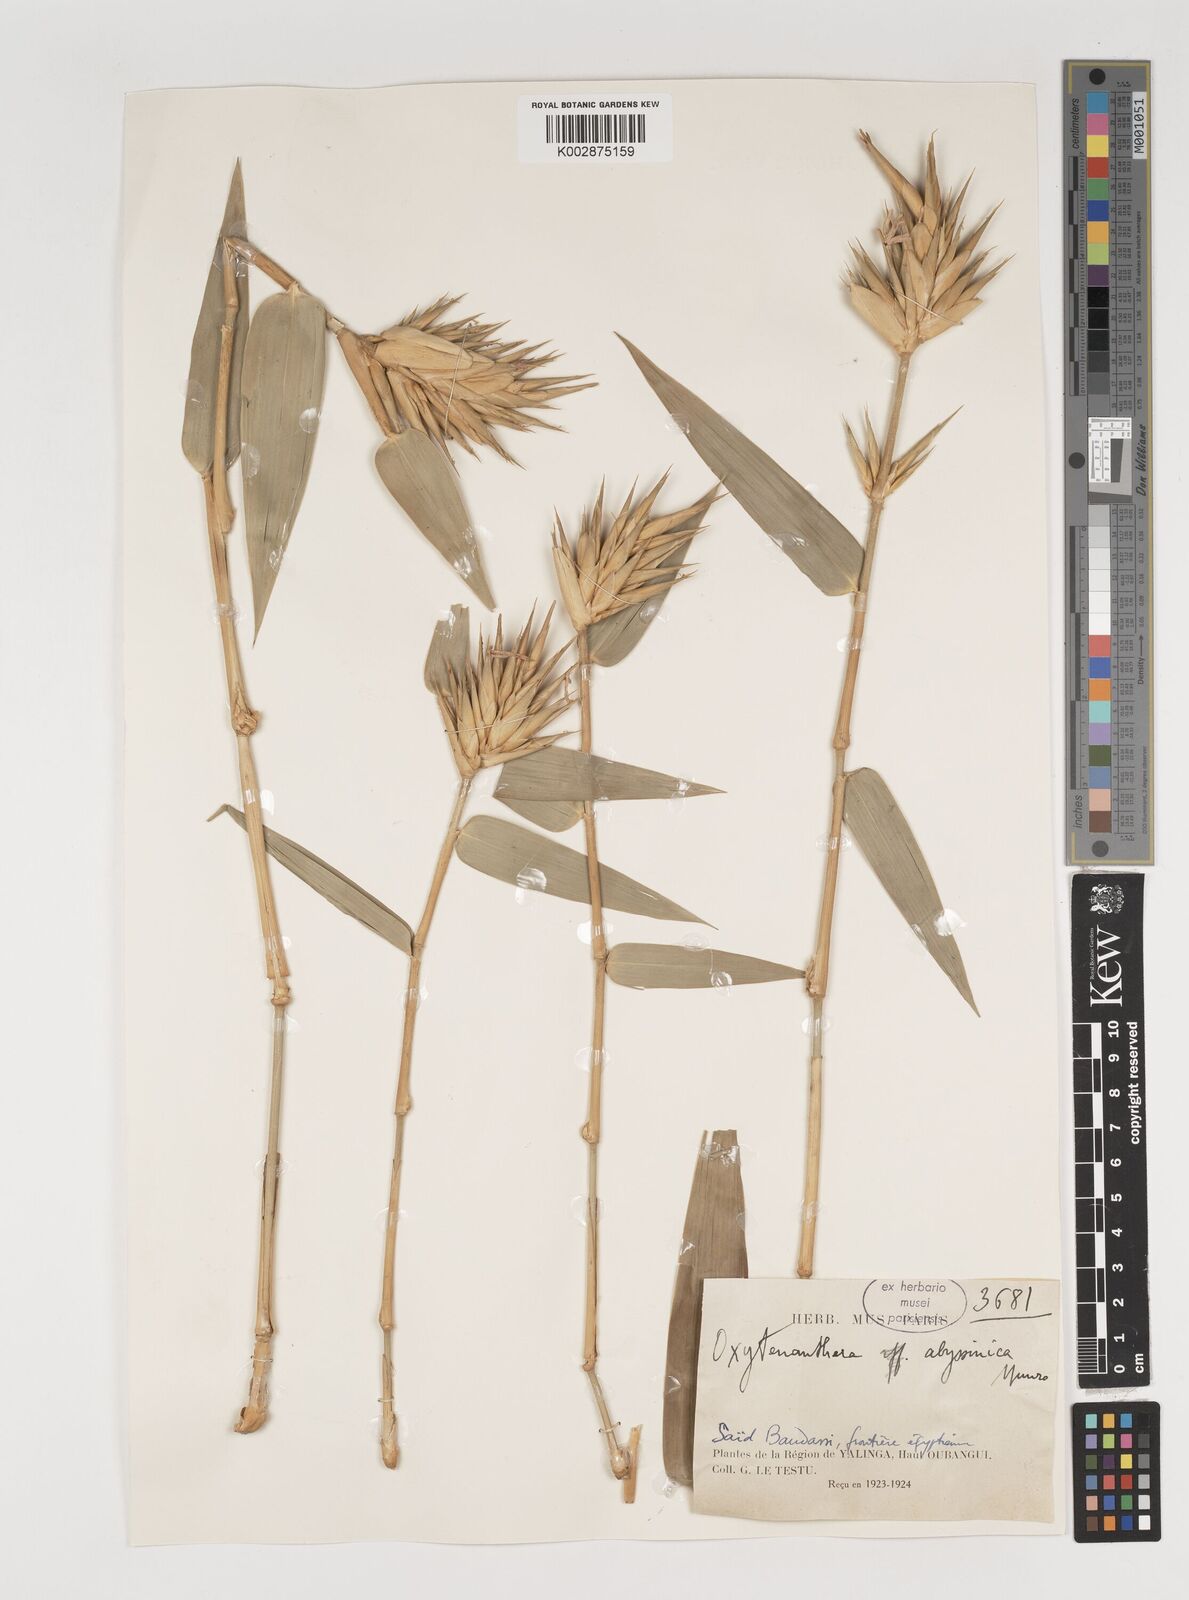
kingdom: Plantae
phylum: Tracheophyta
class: Liliopsida
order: Poales
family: Poaceae
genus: Oxytenanthera
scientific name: Oxytenanthera abyssinica
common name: Wine bamboo
